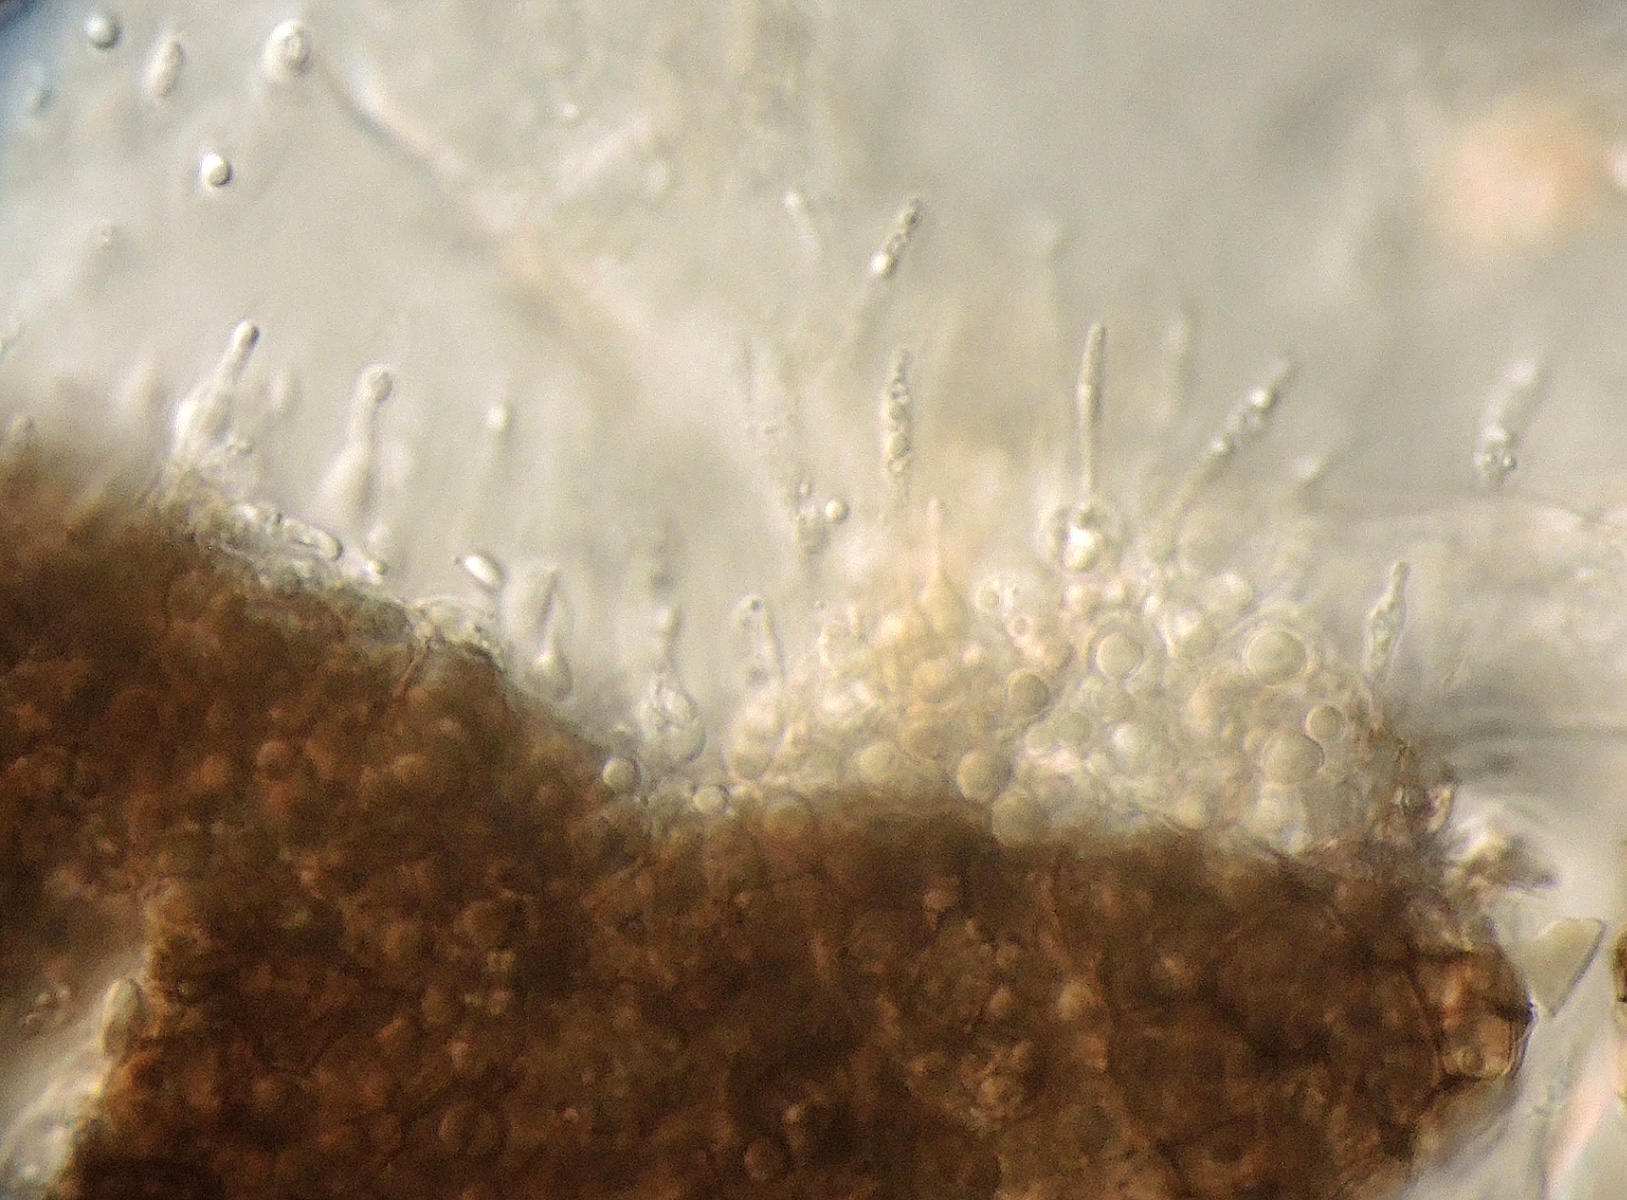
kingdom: Fungi
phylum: Ascomycota
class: Dothideomycetes
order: Pleosporales
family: Phaeosphaeriaceae
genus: Stagonospora
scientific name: Stagonospora luzulae
